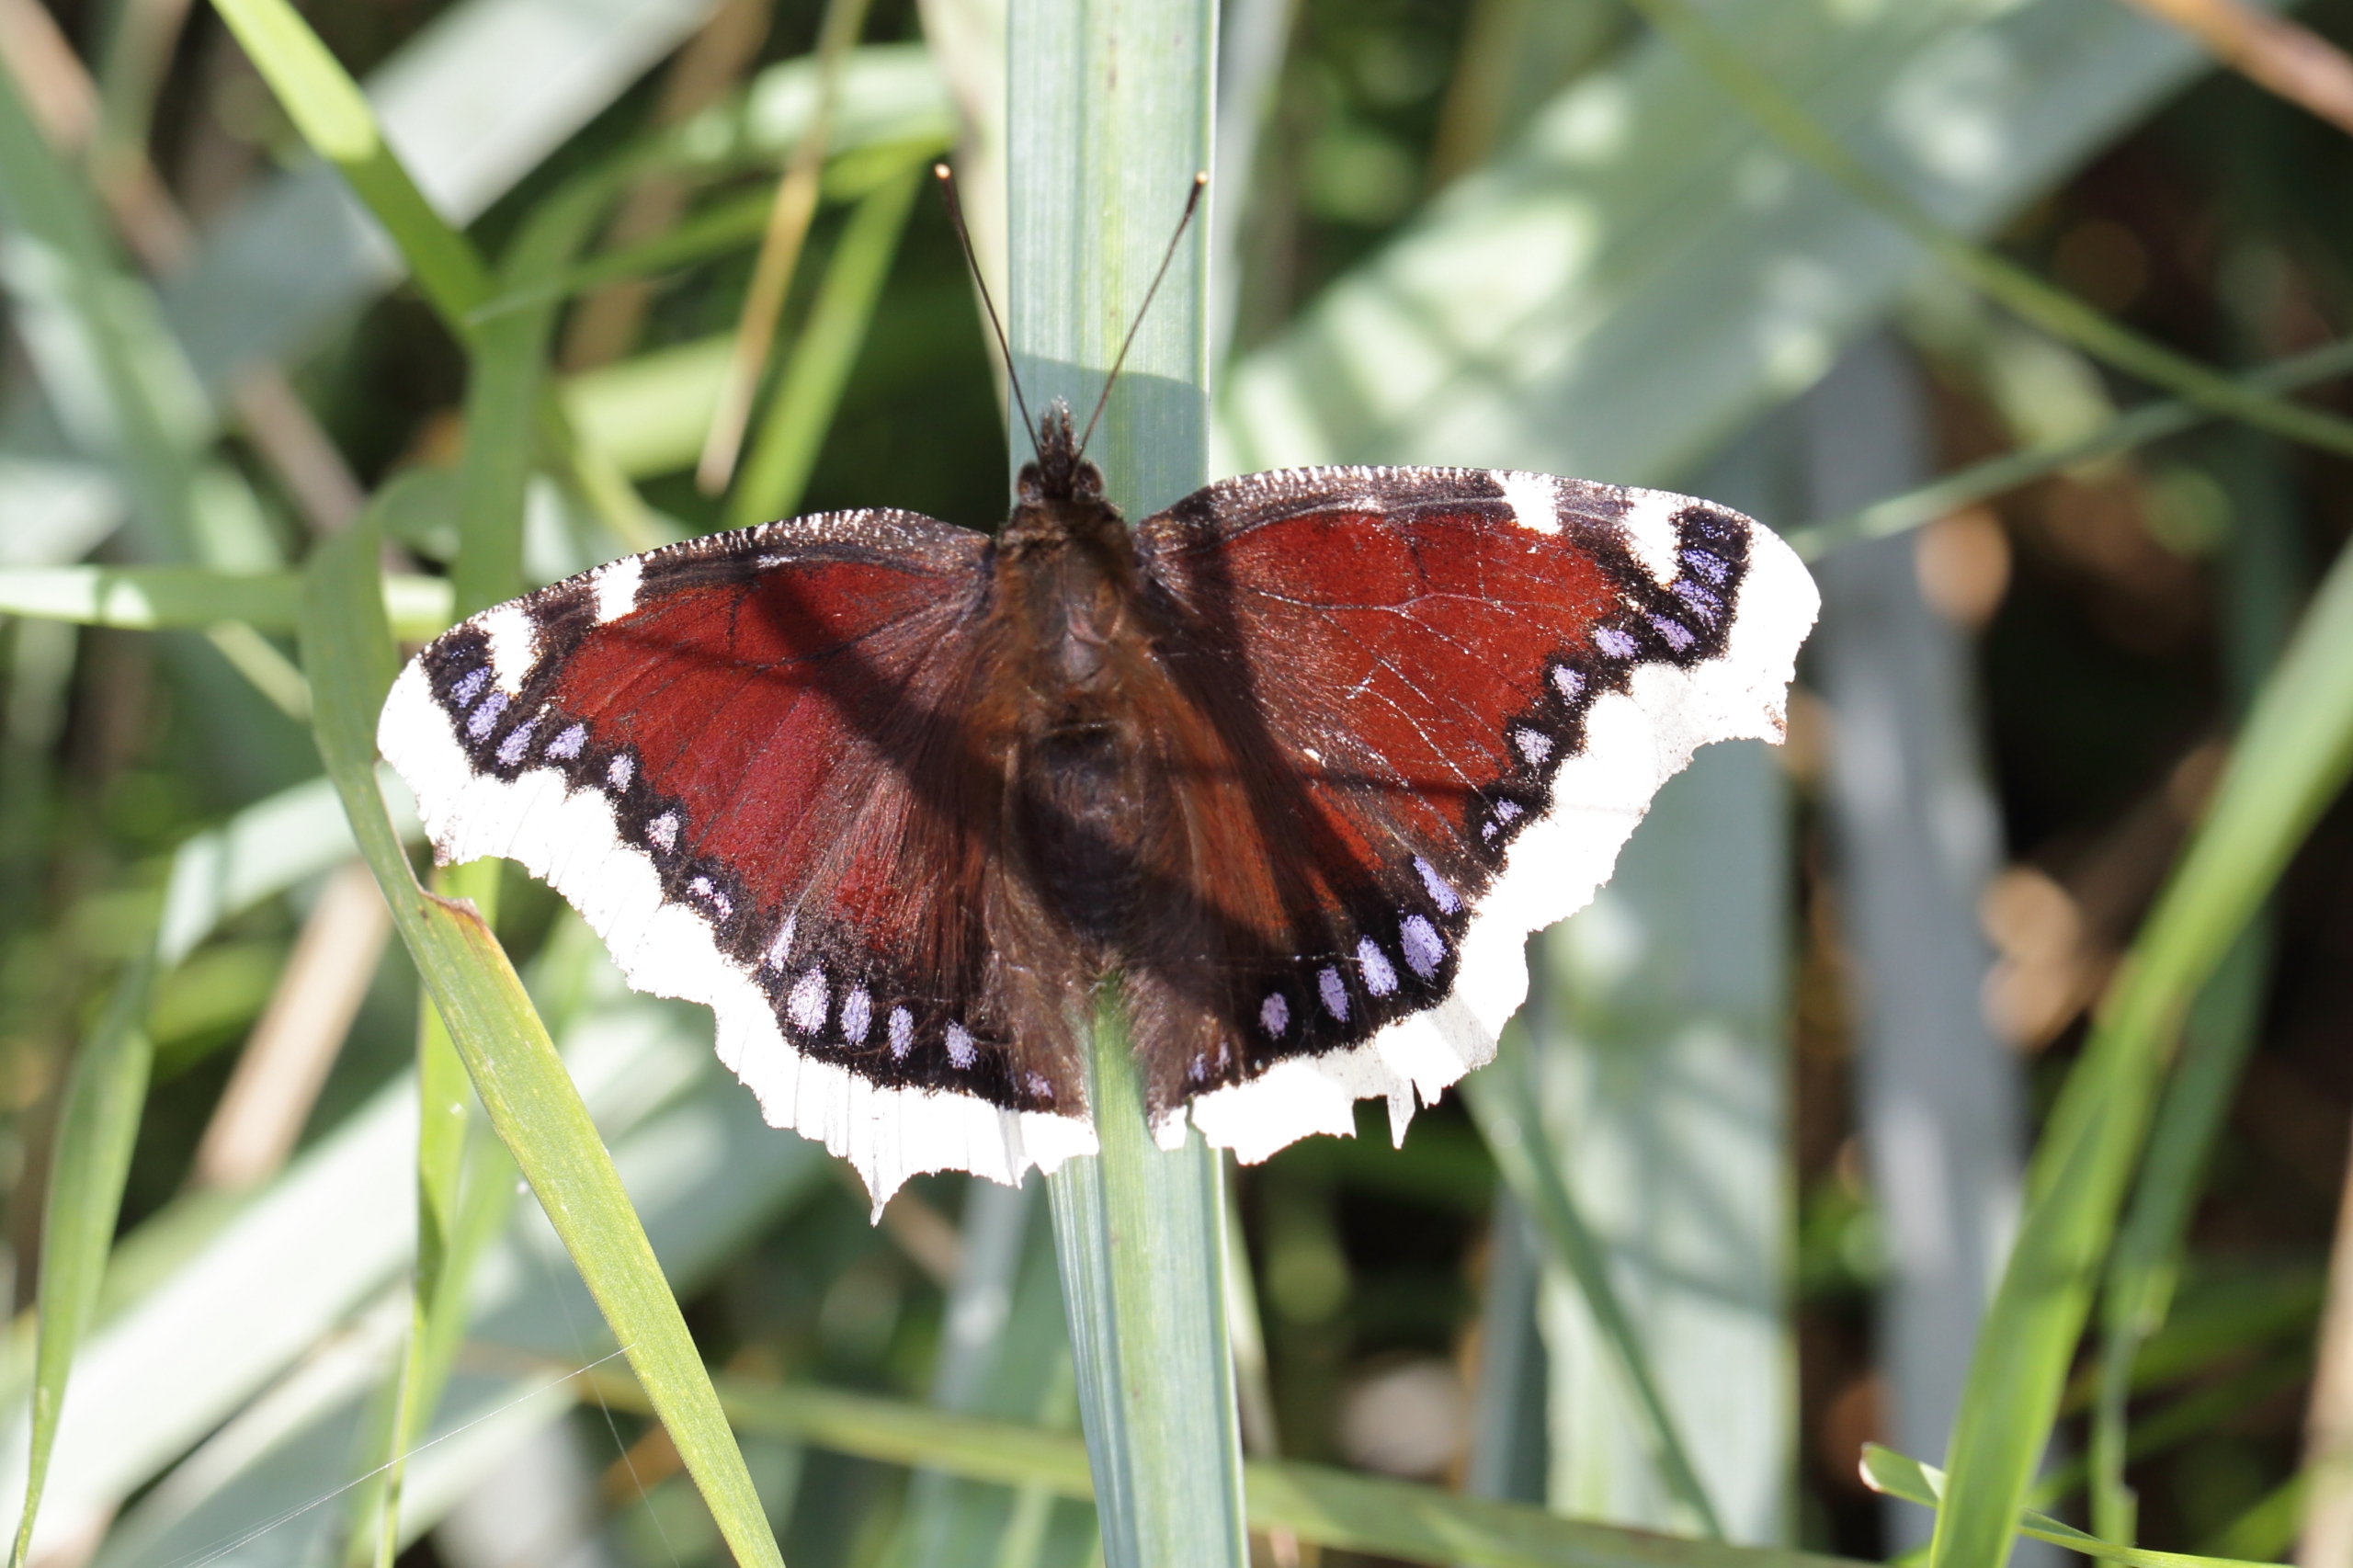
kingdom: Animalia
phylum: Arthropoda
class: Insecta
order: Lepidoptera
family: Nymphalidae
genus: Nymphalis
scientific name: Nymphalis antiopa
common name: Sørgekåbe
